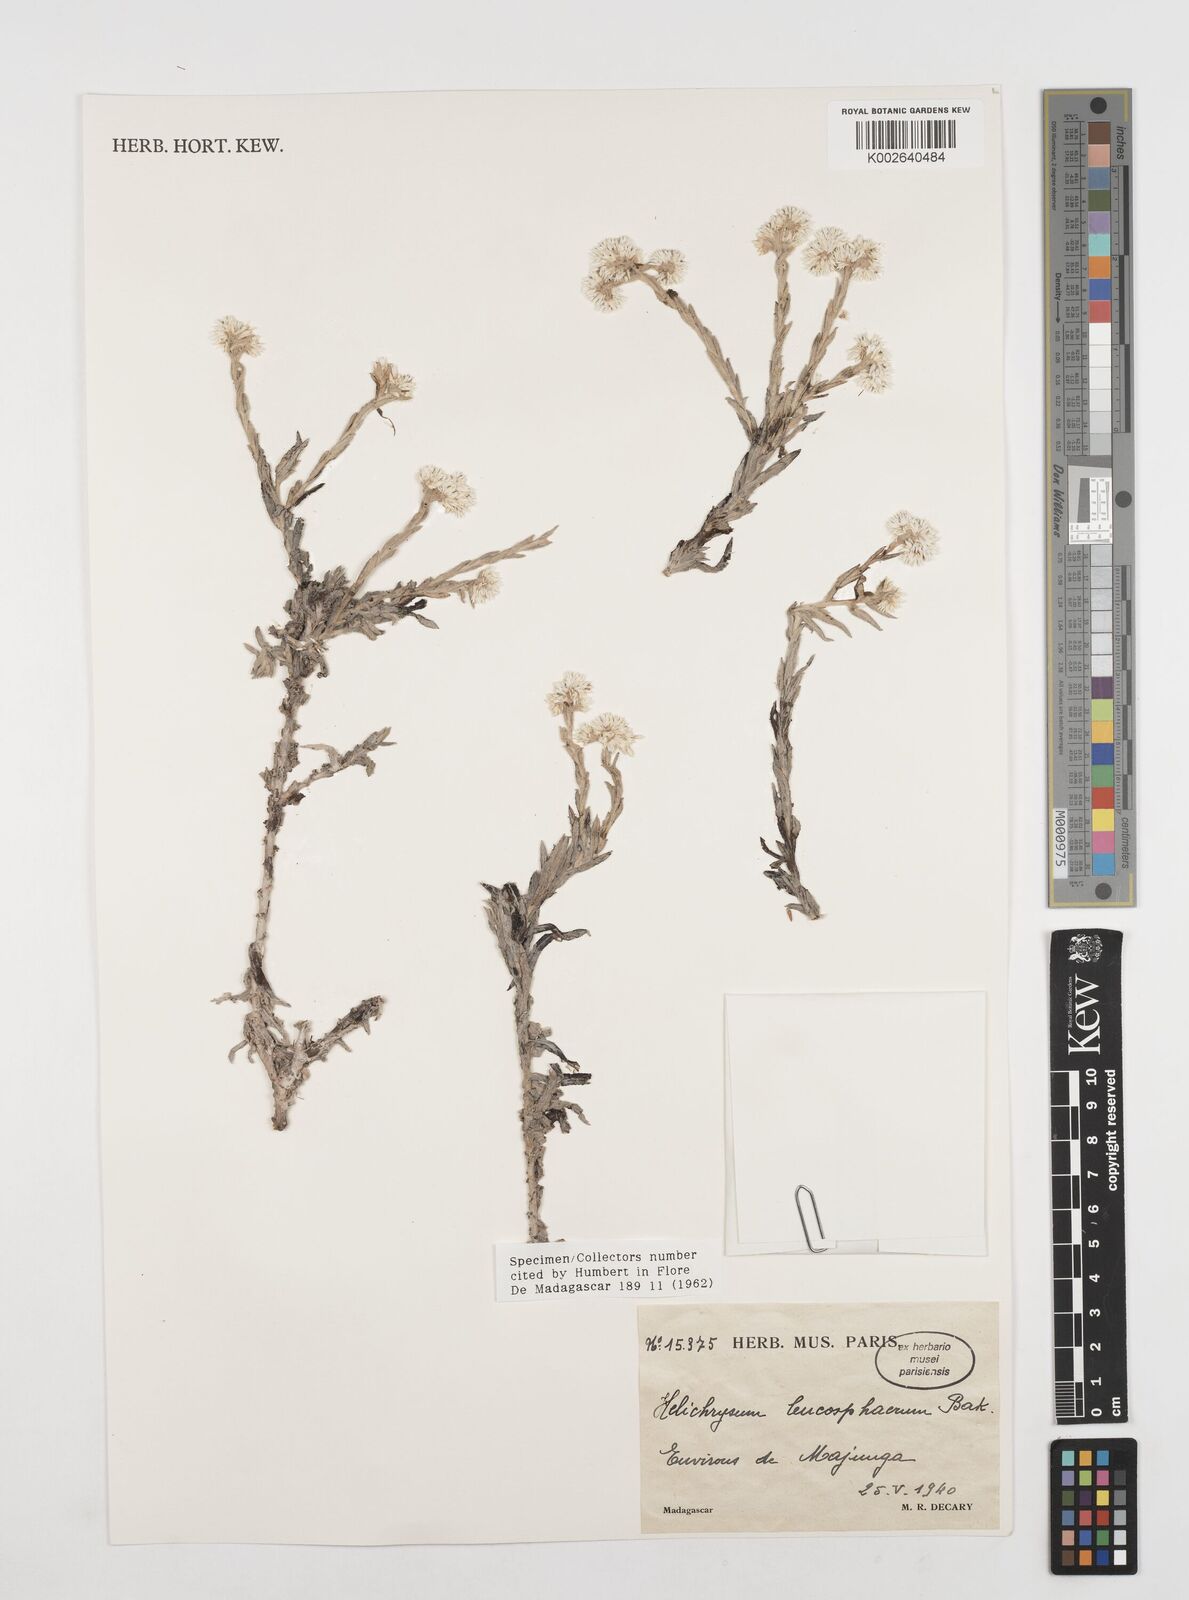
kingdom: Plantae
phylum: Tracheophyta
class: Magnoliopsida
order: Asterales
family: Asteraceae
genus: Helichrysum
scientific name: Helichrysum leucosphaerum
